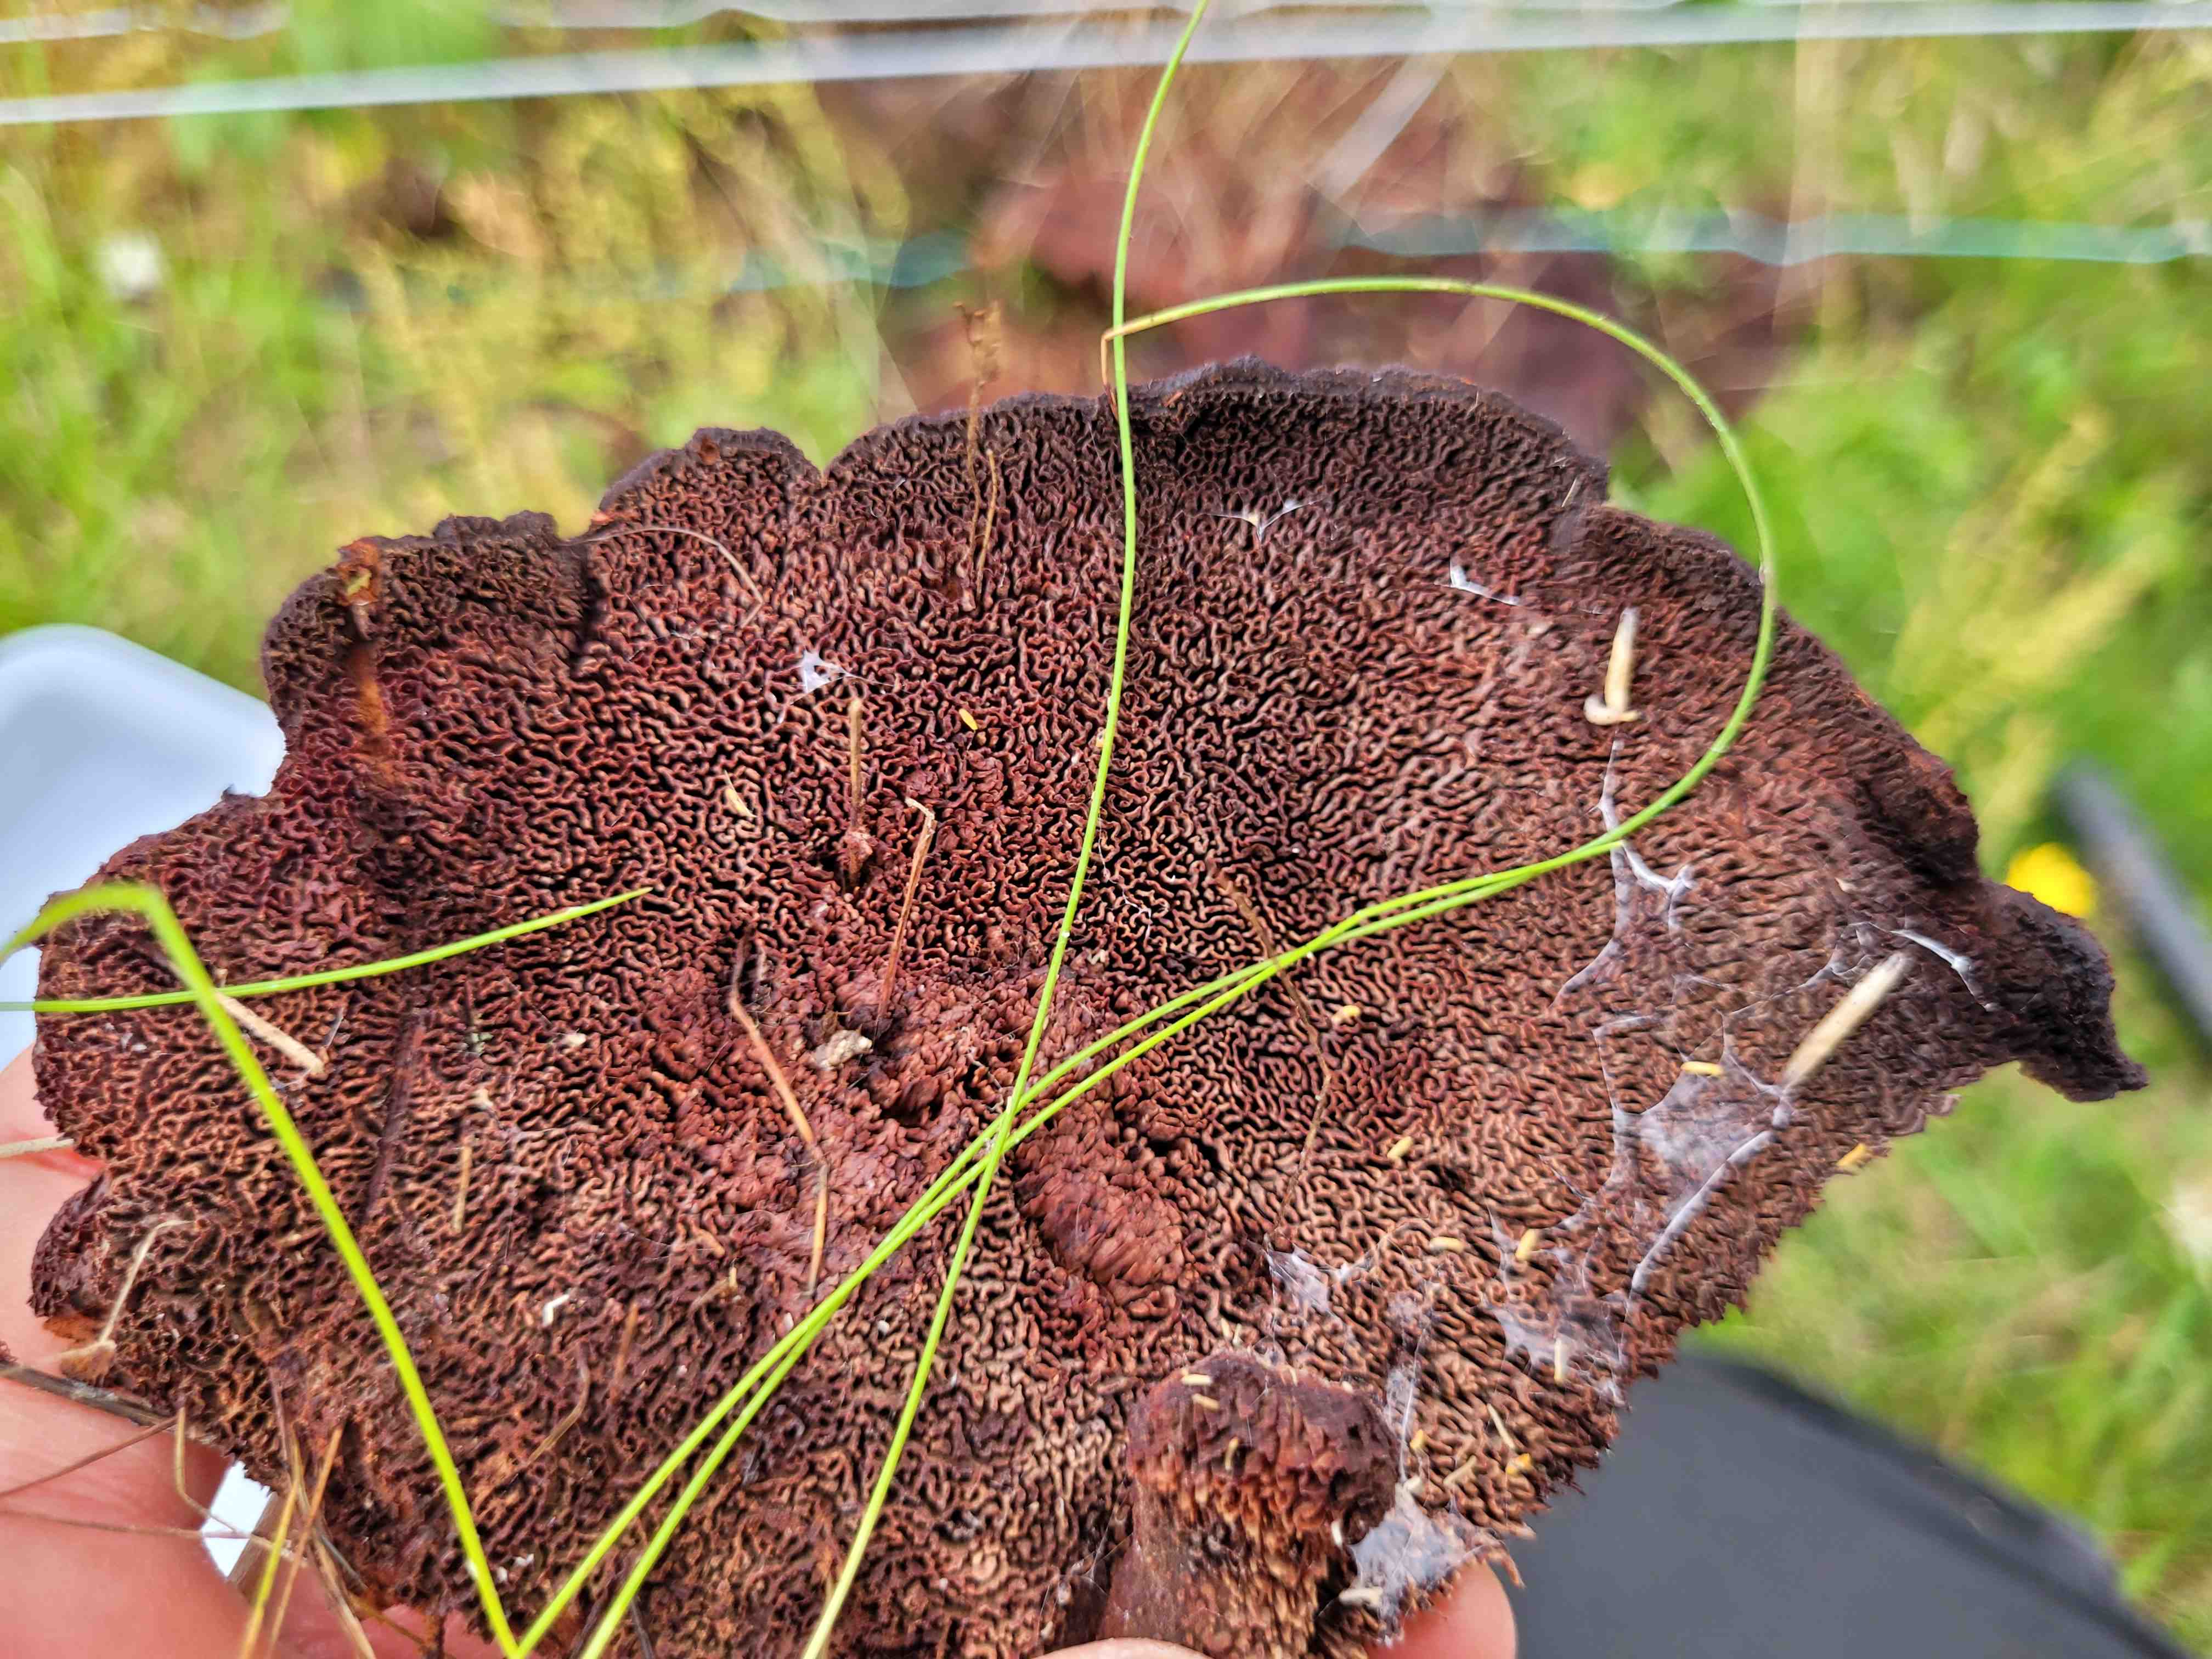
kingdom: Fungi
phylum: Basidiomycota
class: Agaricomycetes
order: Polyporales
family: Laetiporaceae
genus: Phaeolus
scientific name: Phaeolus schweinitzii
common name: brunporesvamp
